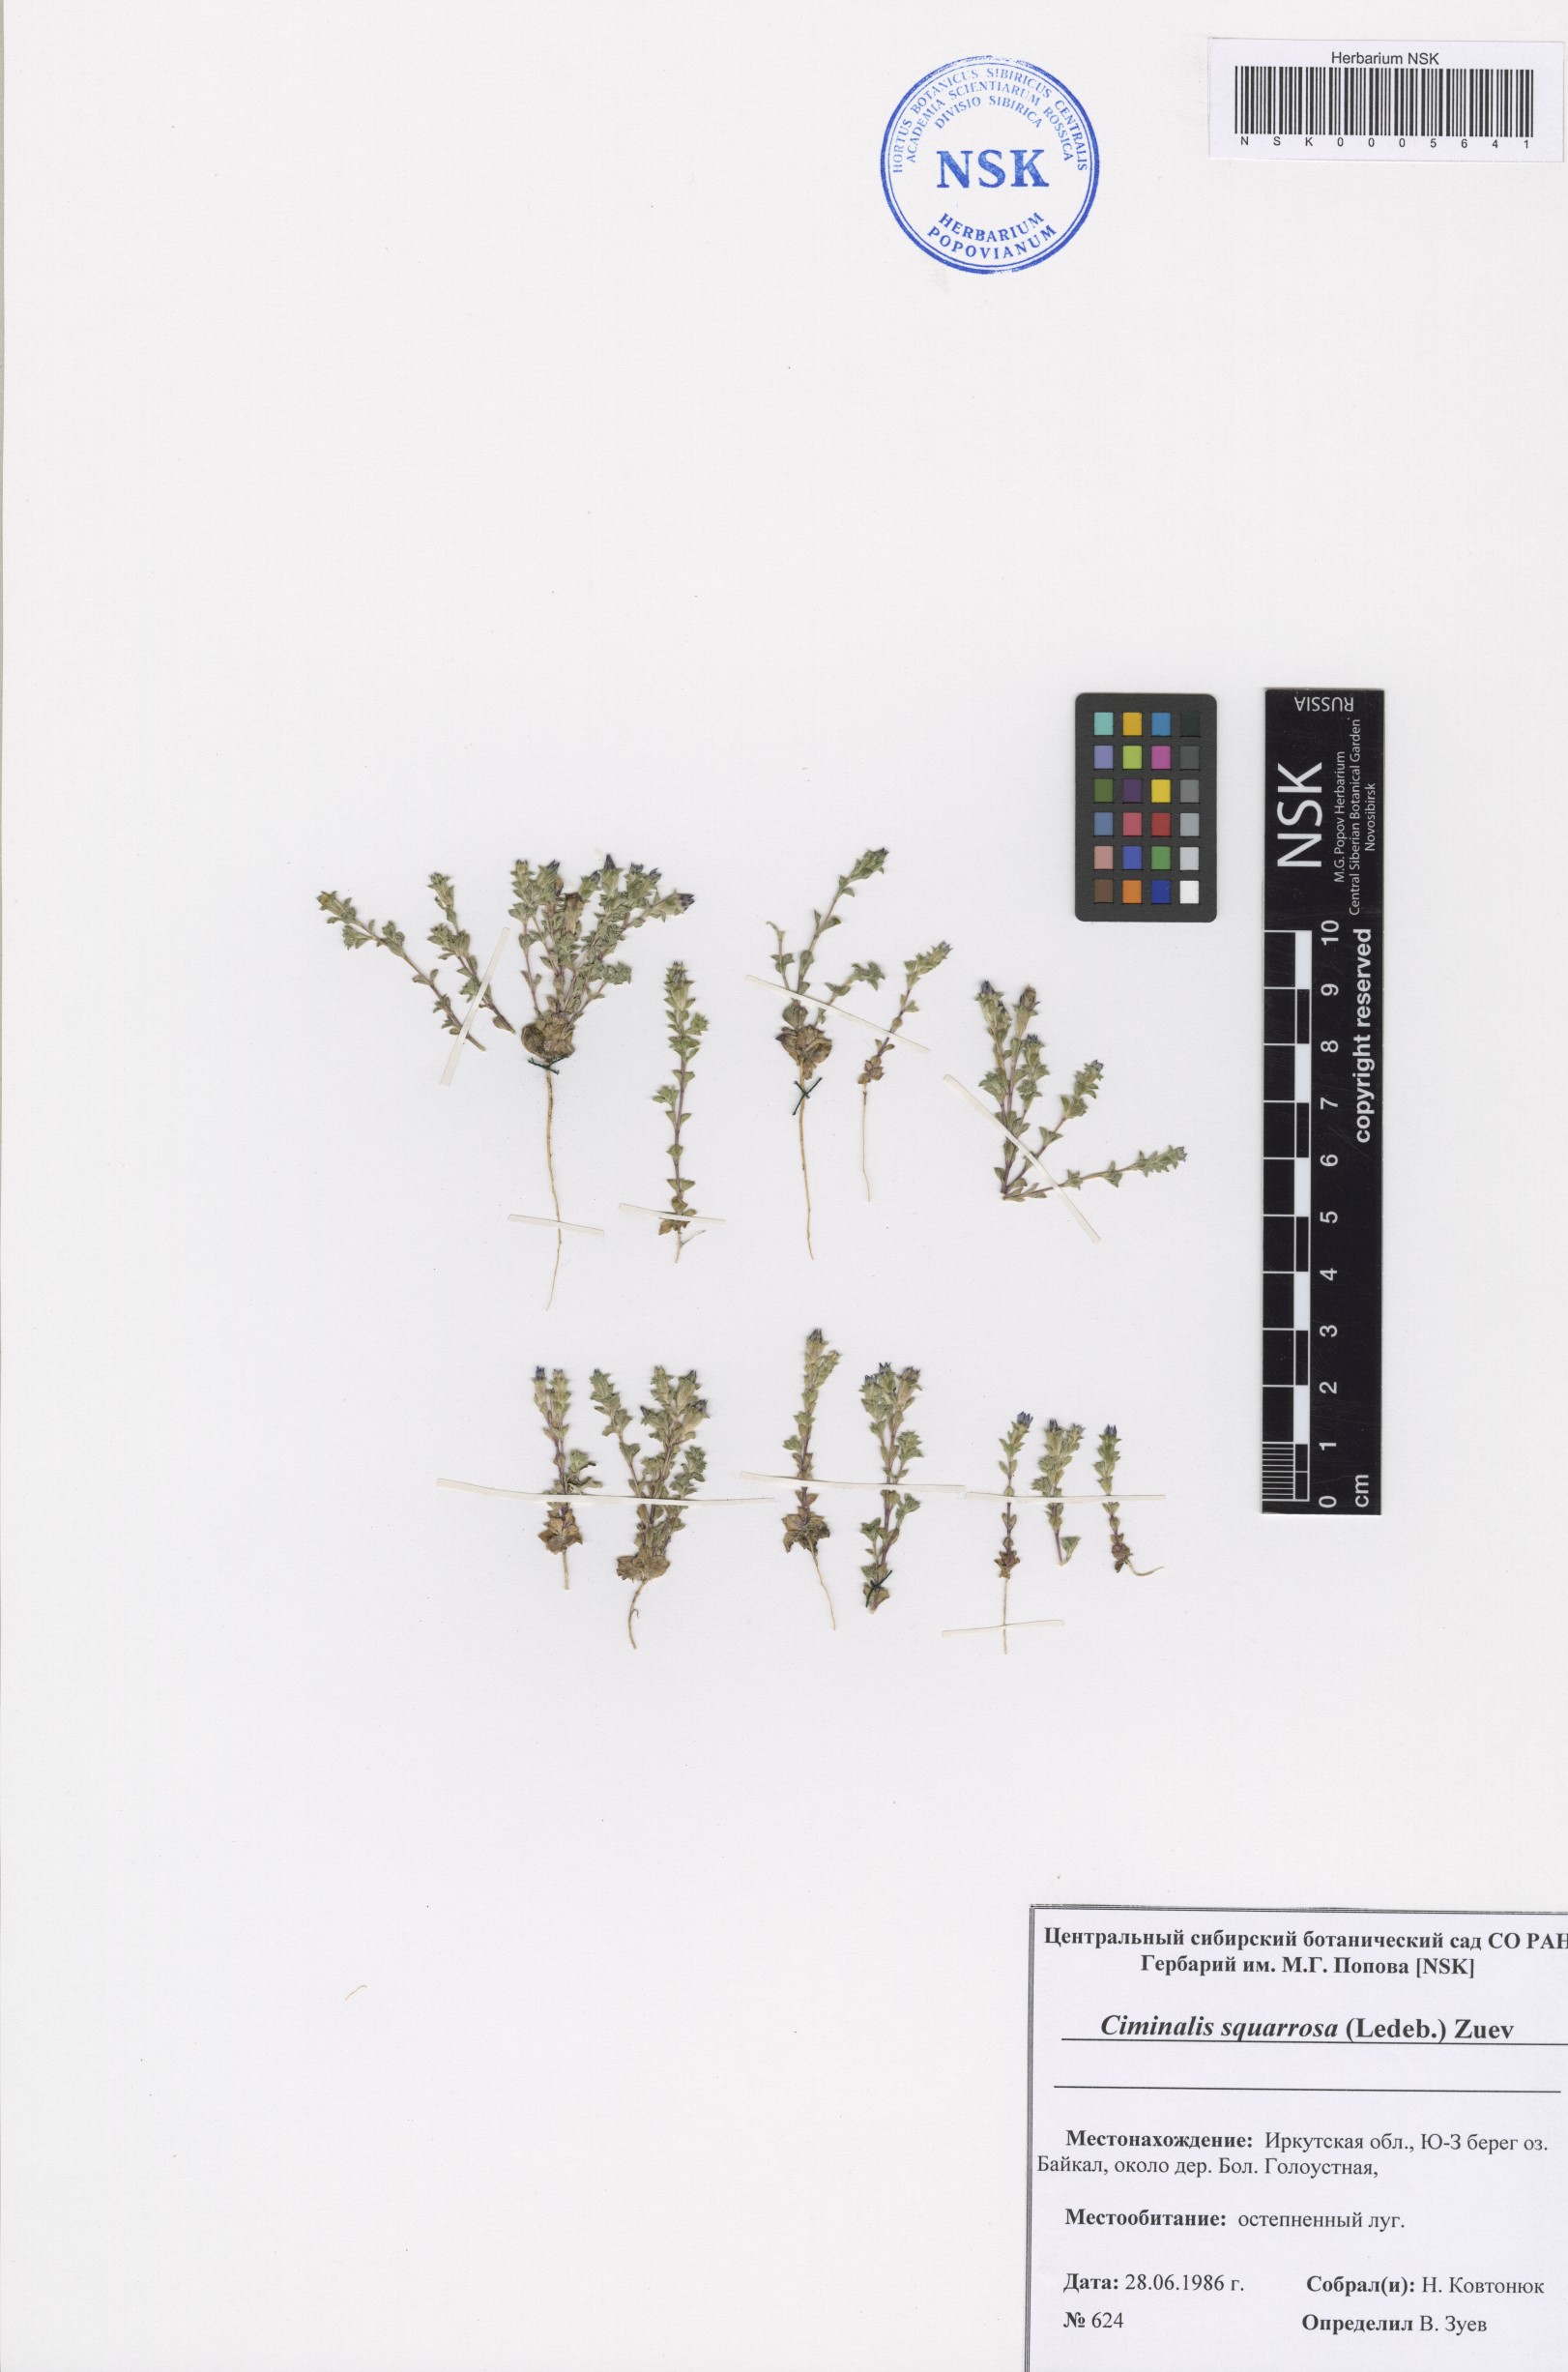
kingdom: Plantae
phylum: Tracheophyta
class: Magnoliopsida
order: Gentianales
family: Gentianaceae
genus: Gentiana
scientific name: Gentiana squarrosa
